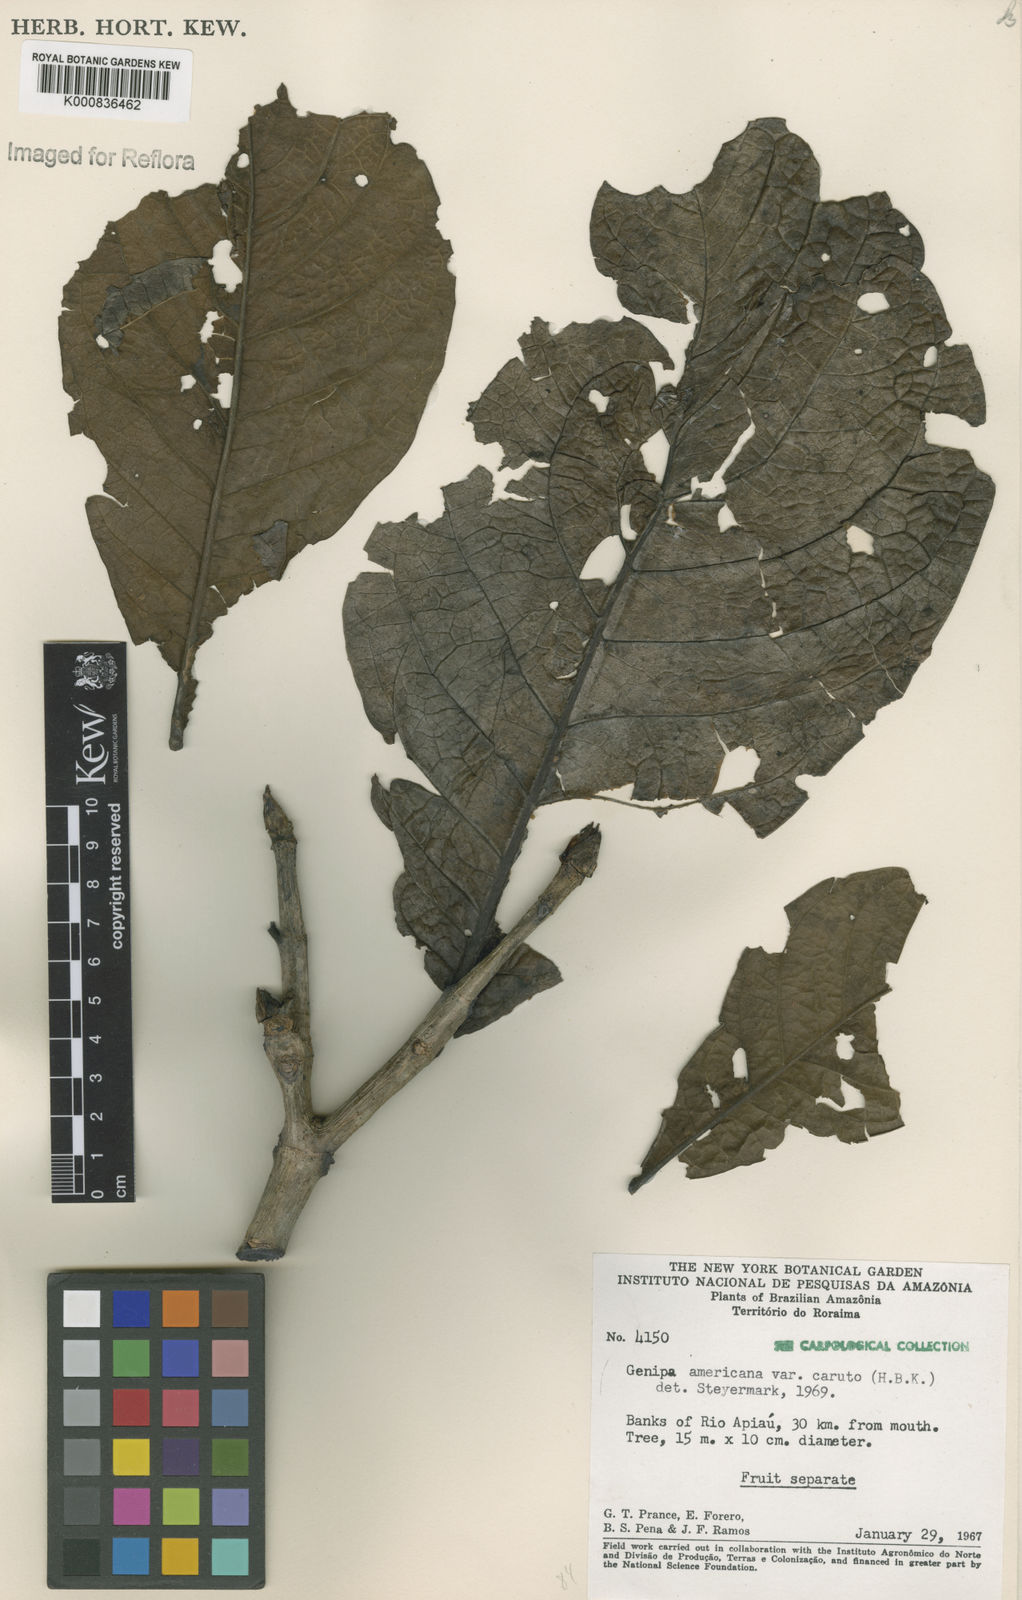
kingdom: Plantae
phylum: Tracheophyta
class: Magnoliopsida
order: Gentianales
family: Rubiaceae
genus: Genipa
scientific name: Genipa americana
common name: Genipap
